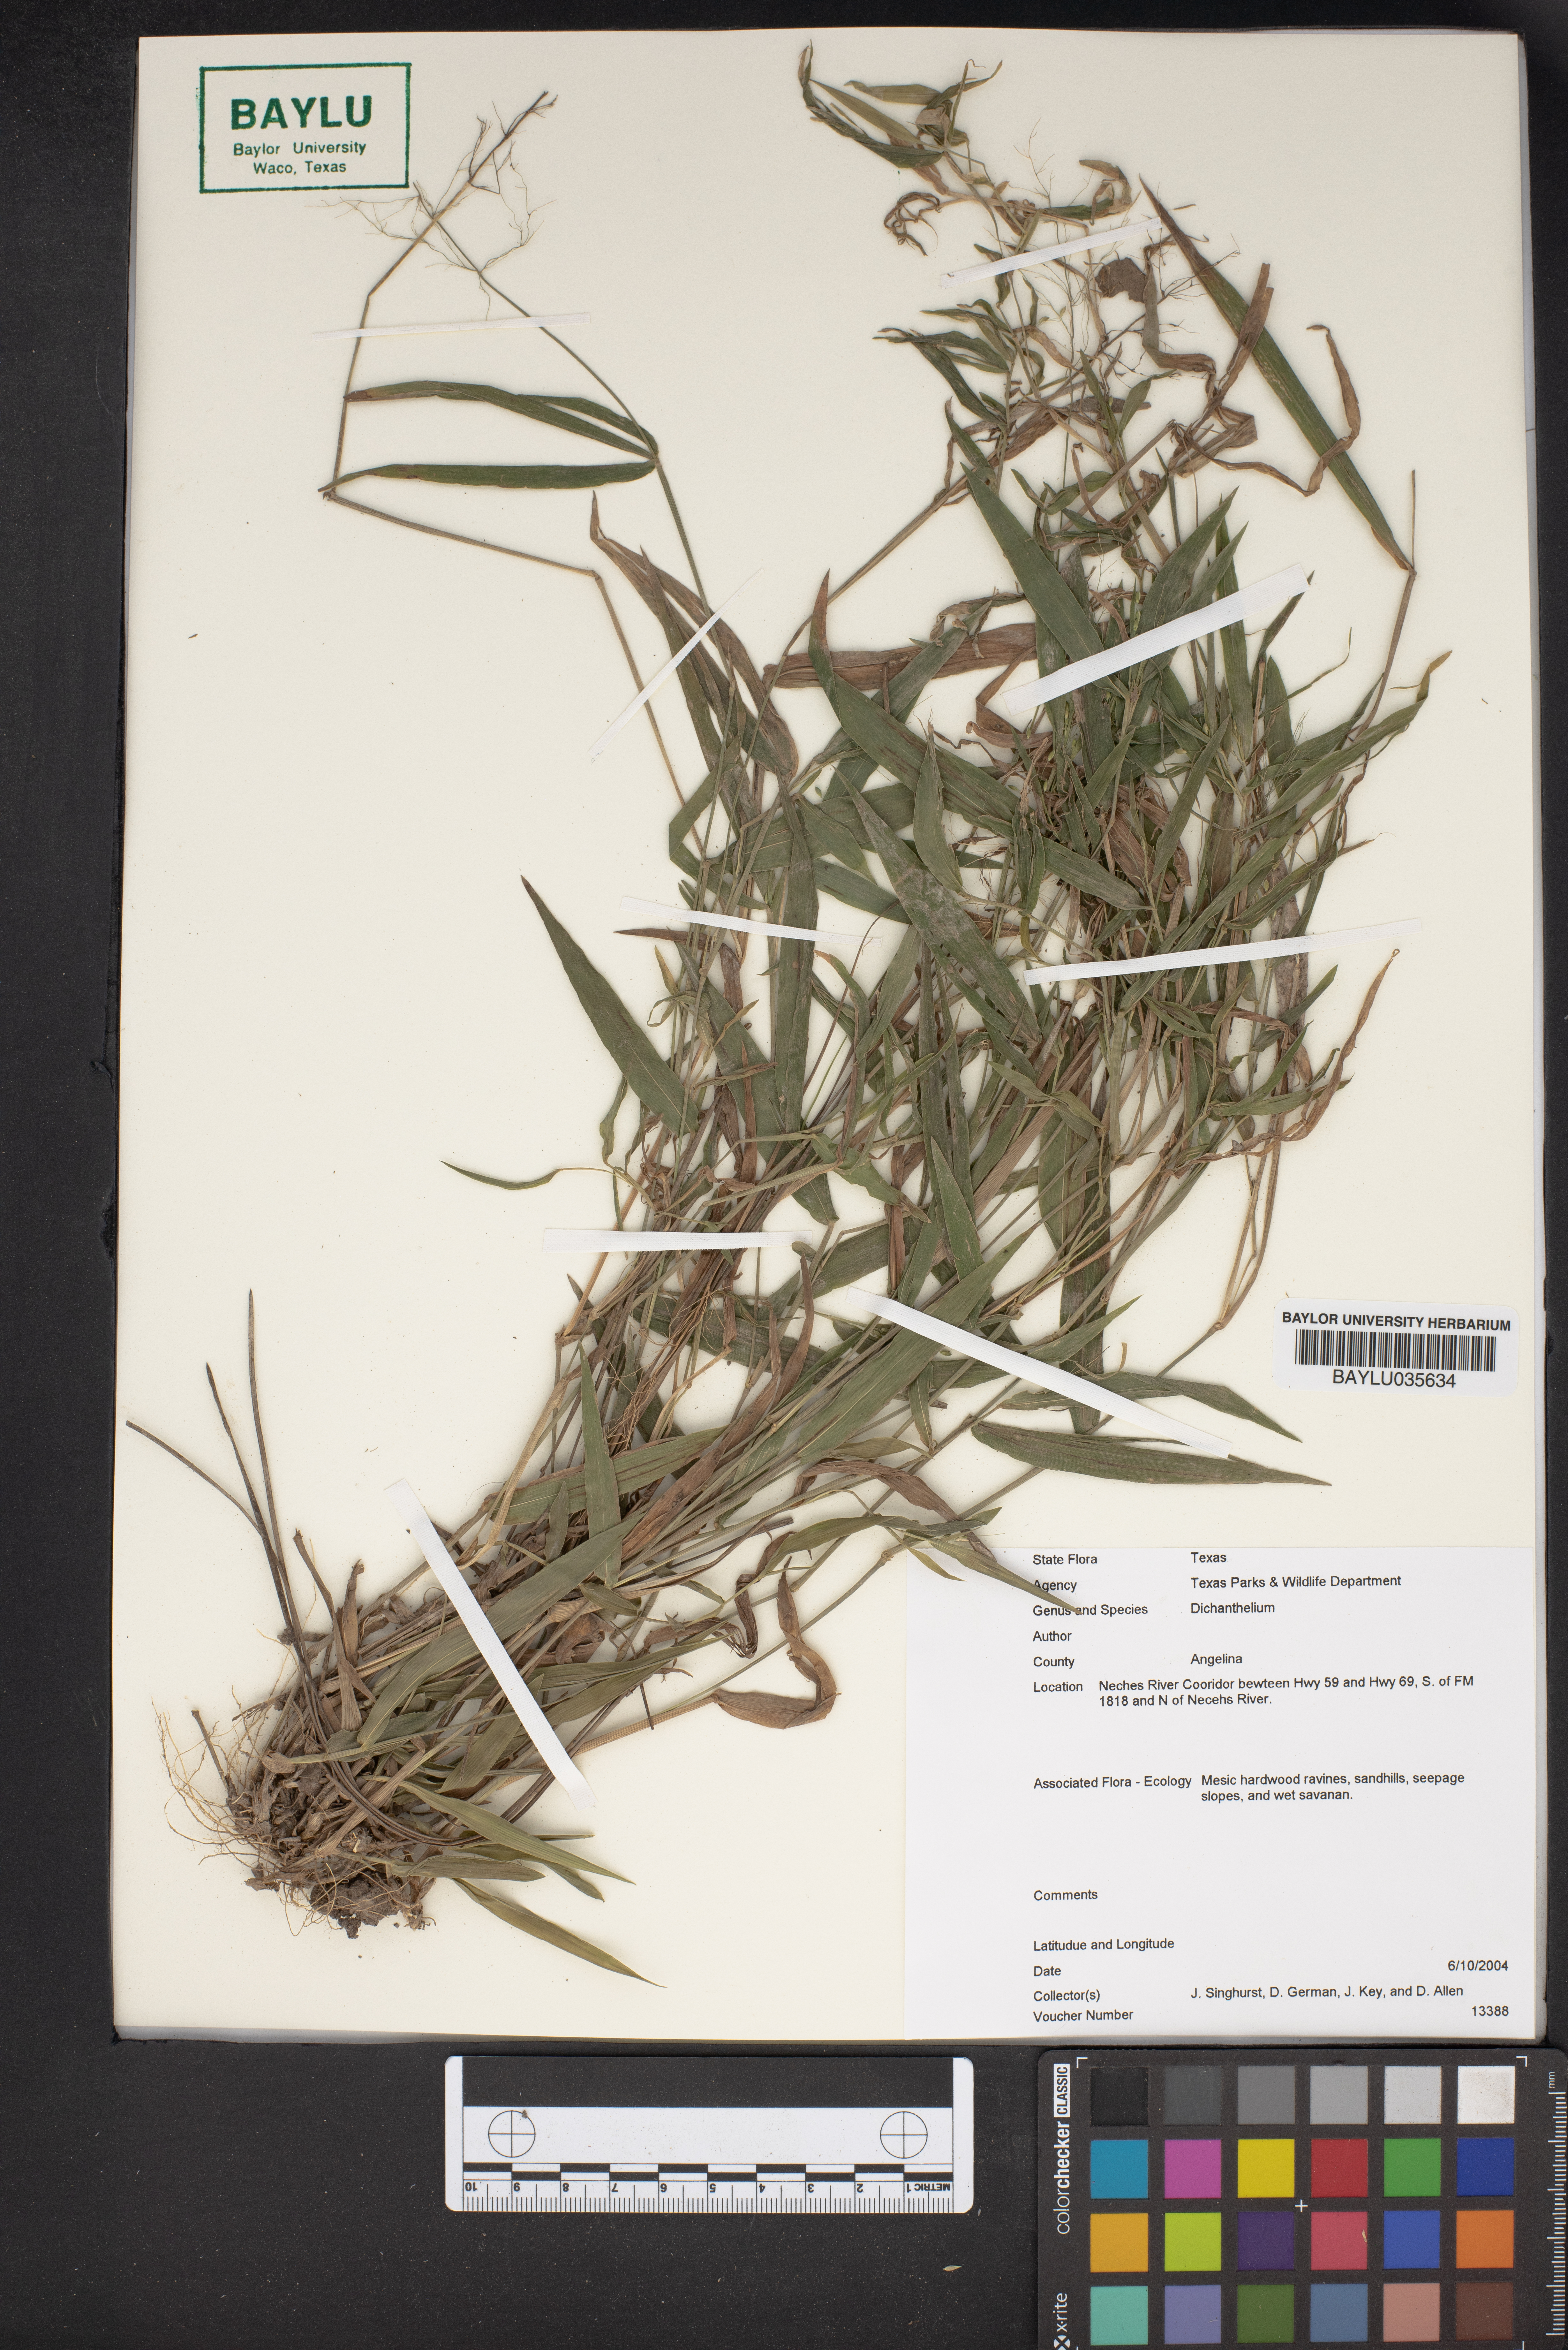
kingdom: Plantae
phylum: Tracheophyta
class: Liliopsida
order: Poales
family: Poaceae
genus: Dichanthelium
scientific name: Dichanthelium
